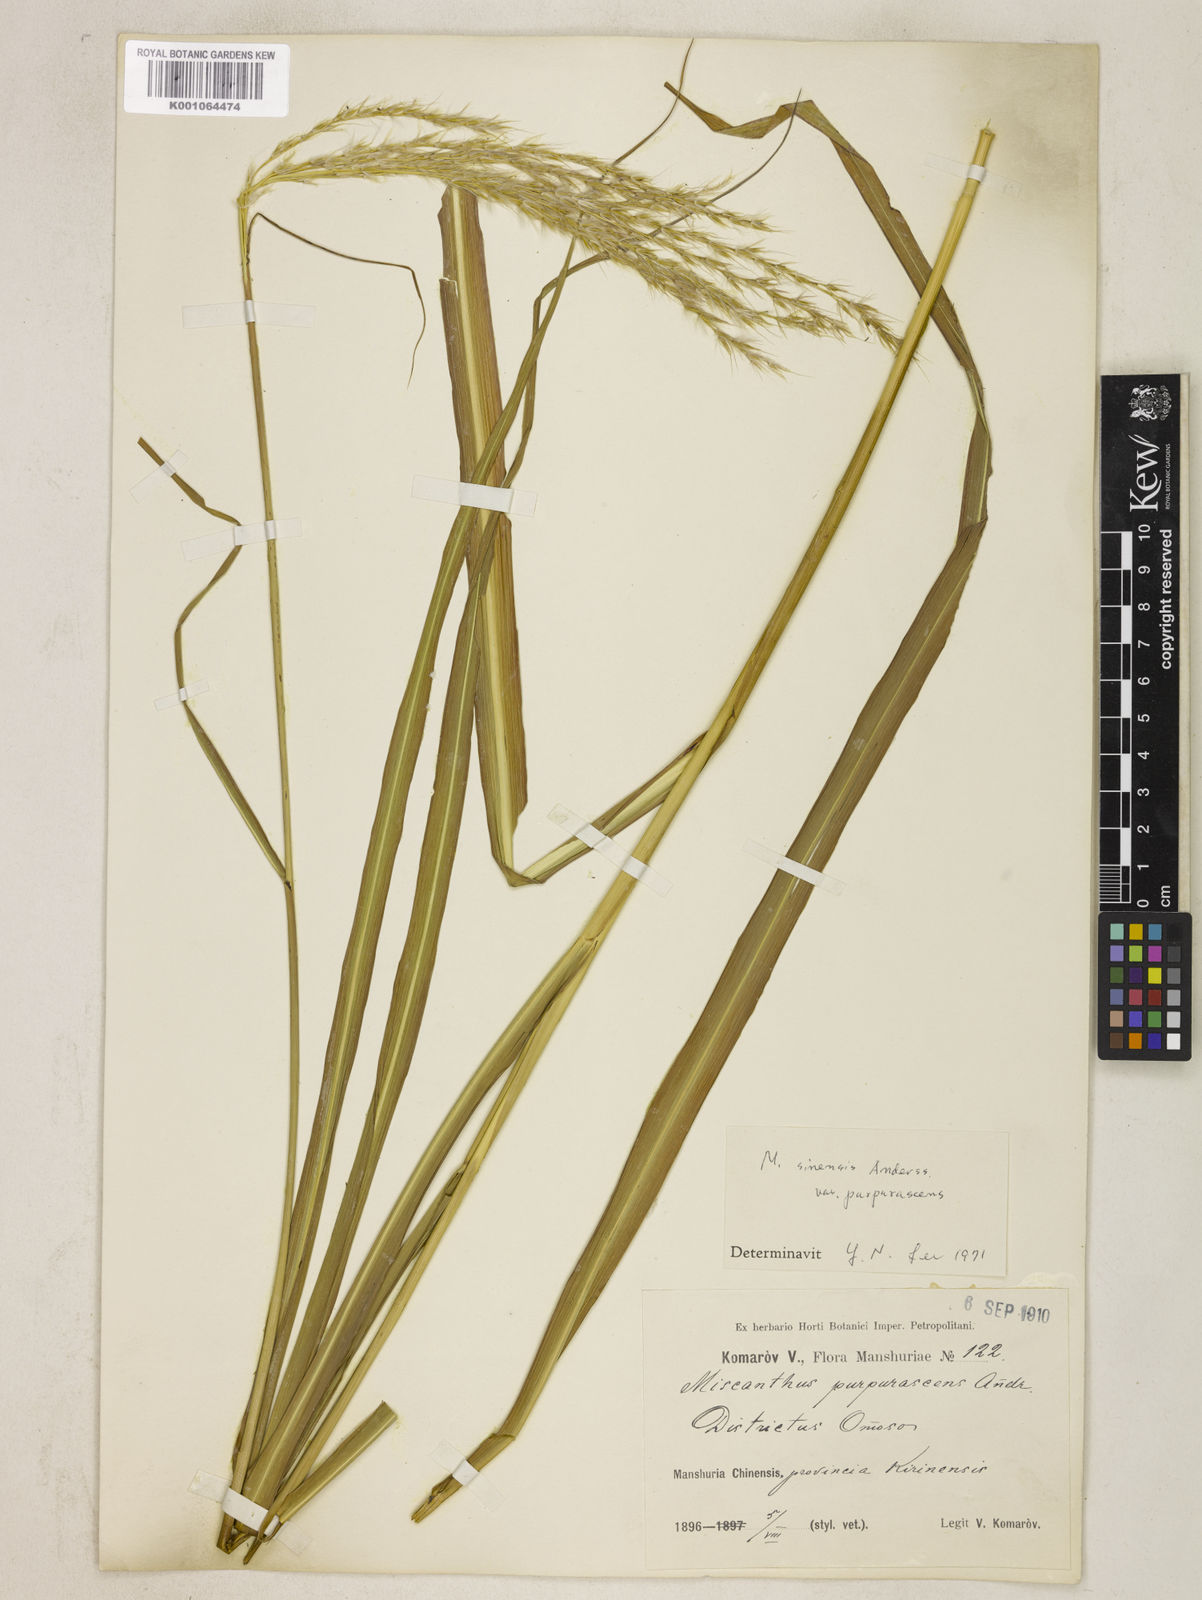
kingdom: Plantae
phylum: Tracheophyta
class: Liliopsida
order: Poales
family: Poaceae
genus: Miscanthus
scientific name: Miscanthus sinensis
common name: Chinese silvergrass
